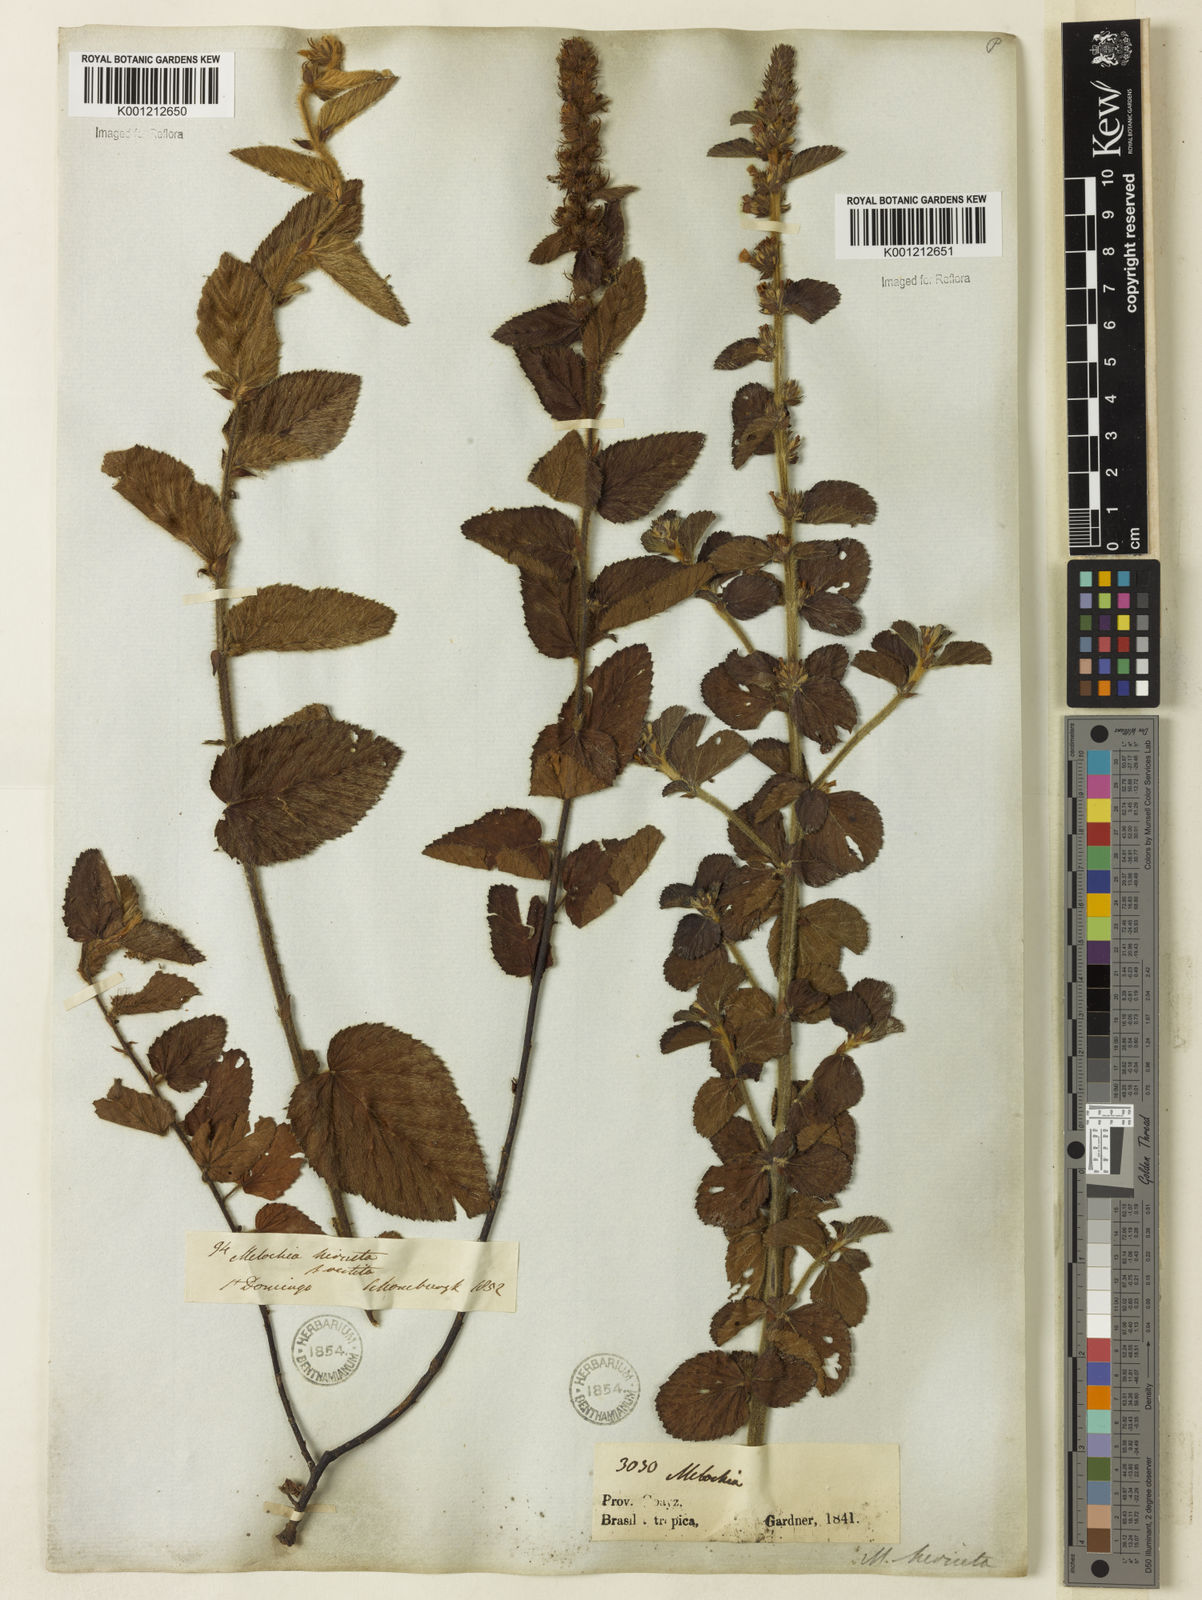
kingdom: Plantae
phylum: Tracheophyta
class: Magnoliopsida
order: Malvales
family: Malvaceae
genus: Melochia
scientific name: Melochia spicata
